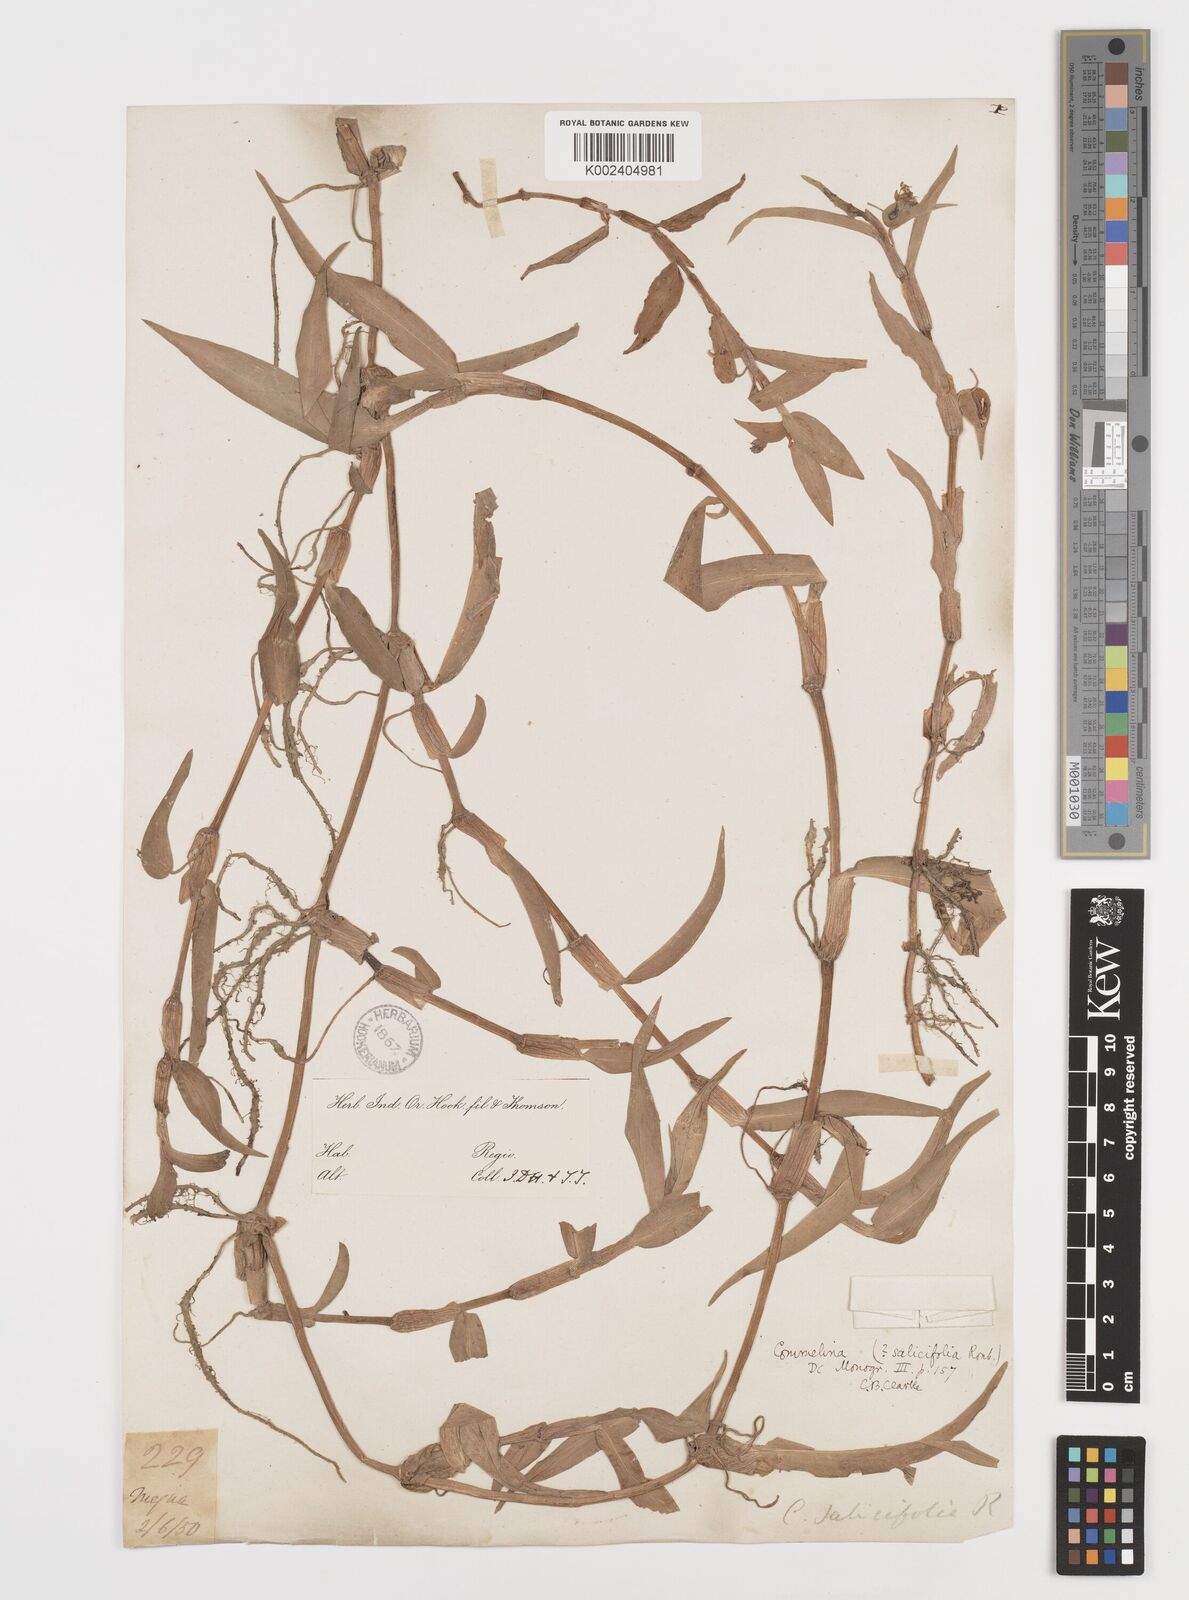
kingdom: Plantae
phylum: Tracheophyta
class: Liliopsida
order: Commelinales
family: Commelinaceae
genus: Commelina
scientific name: Commelina undulata
